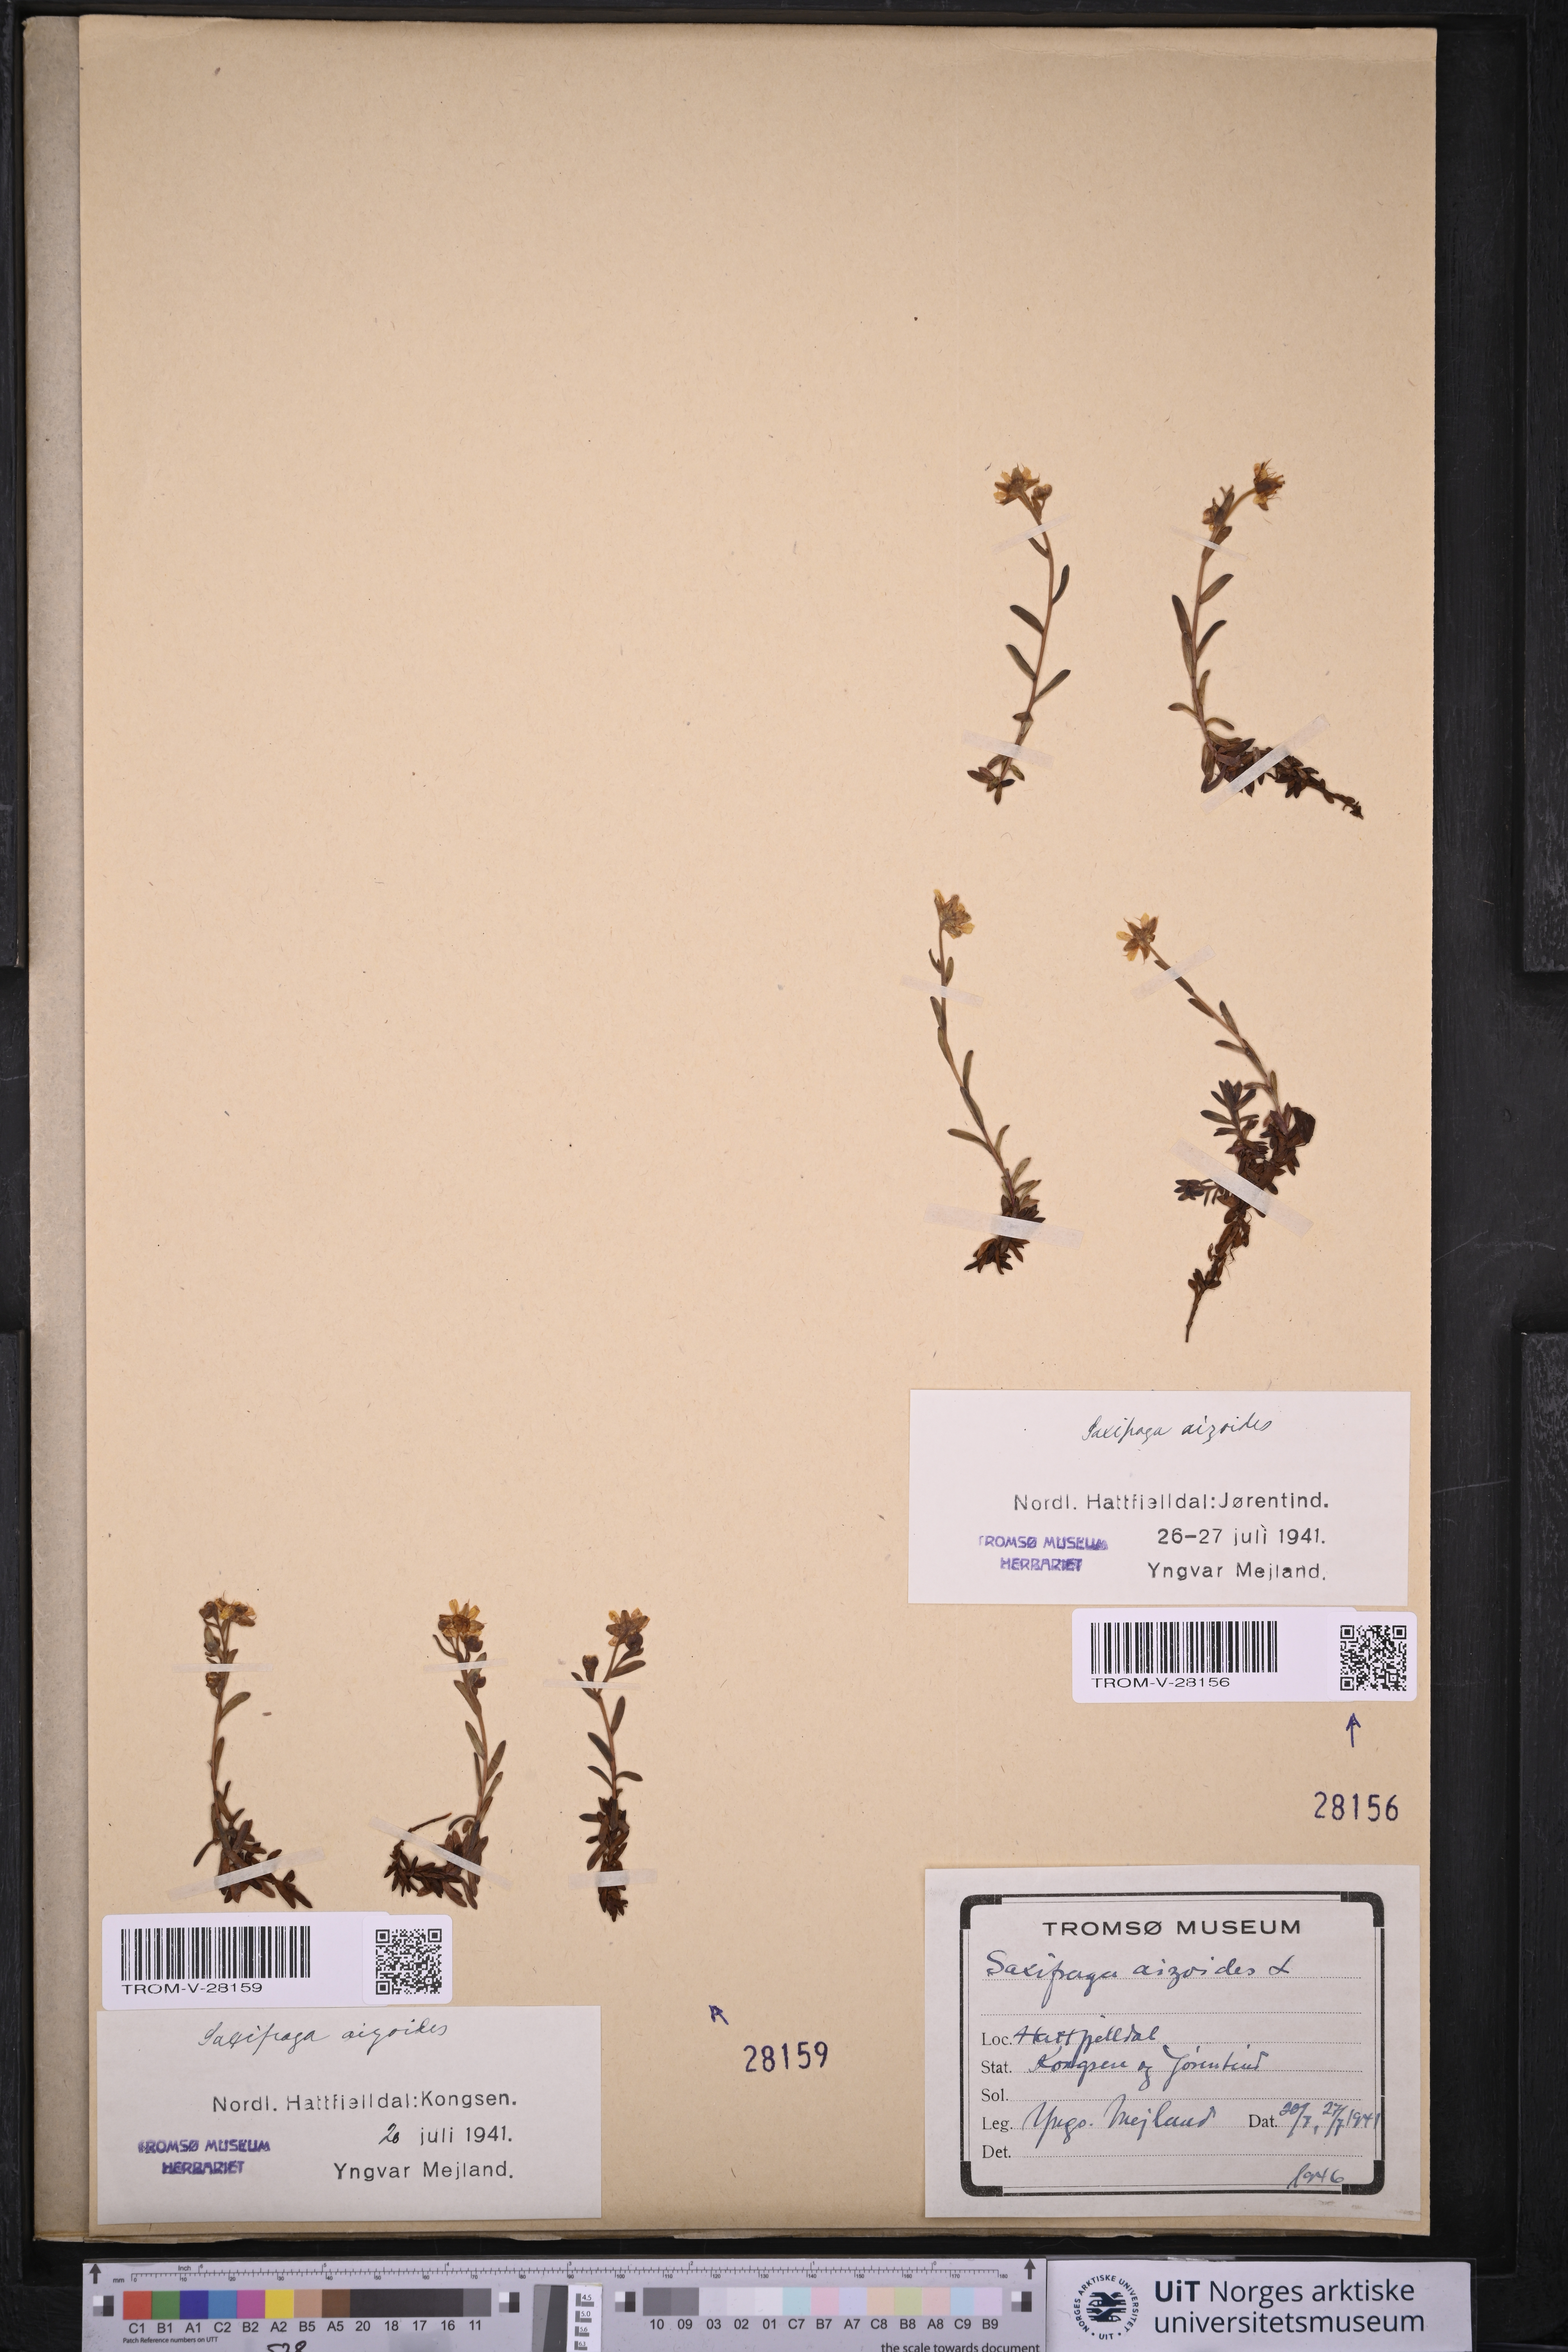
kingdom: Plantae
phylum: Tracheophyta
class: Magnoliopsida
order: Saxifragales
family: Saxifragaceae
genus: Saxifraga
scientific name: Saxifraga aizoides
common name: Yellow mountain saxifrage
